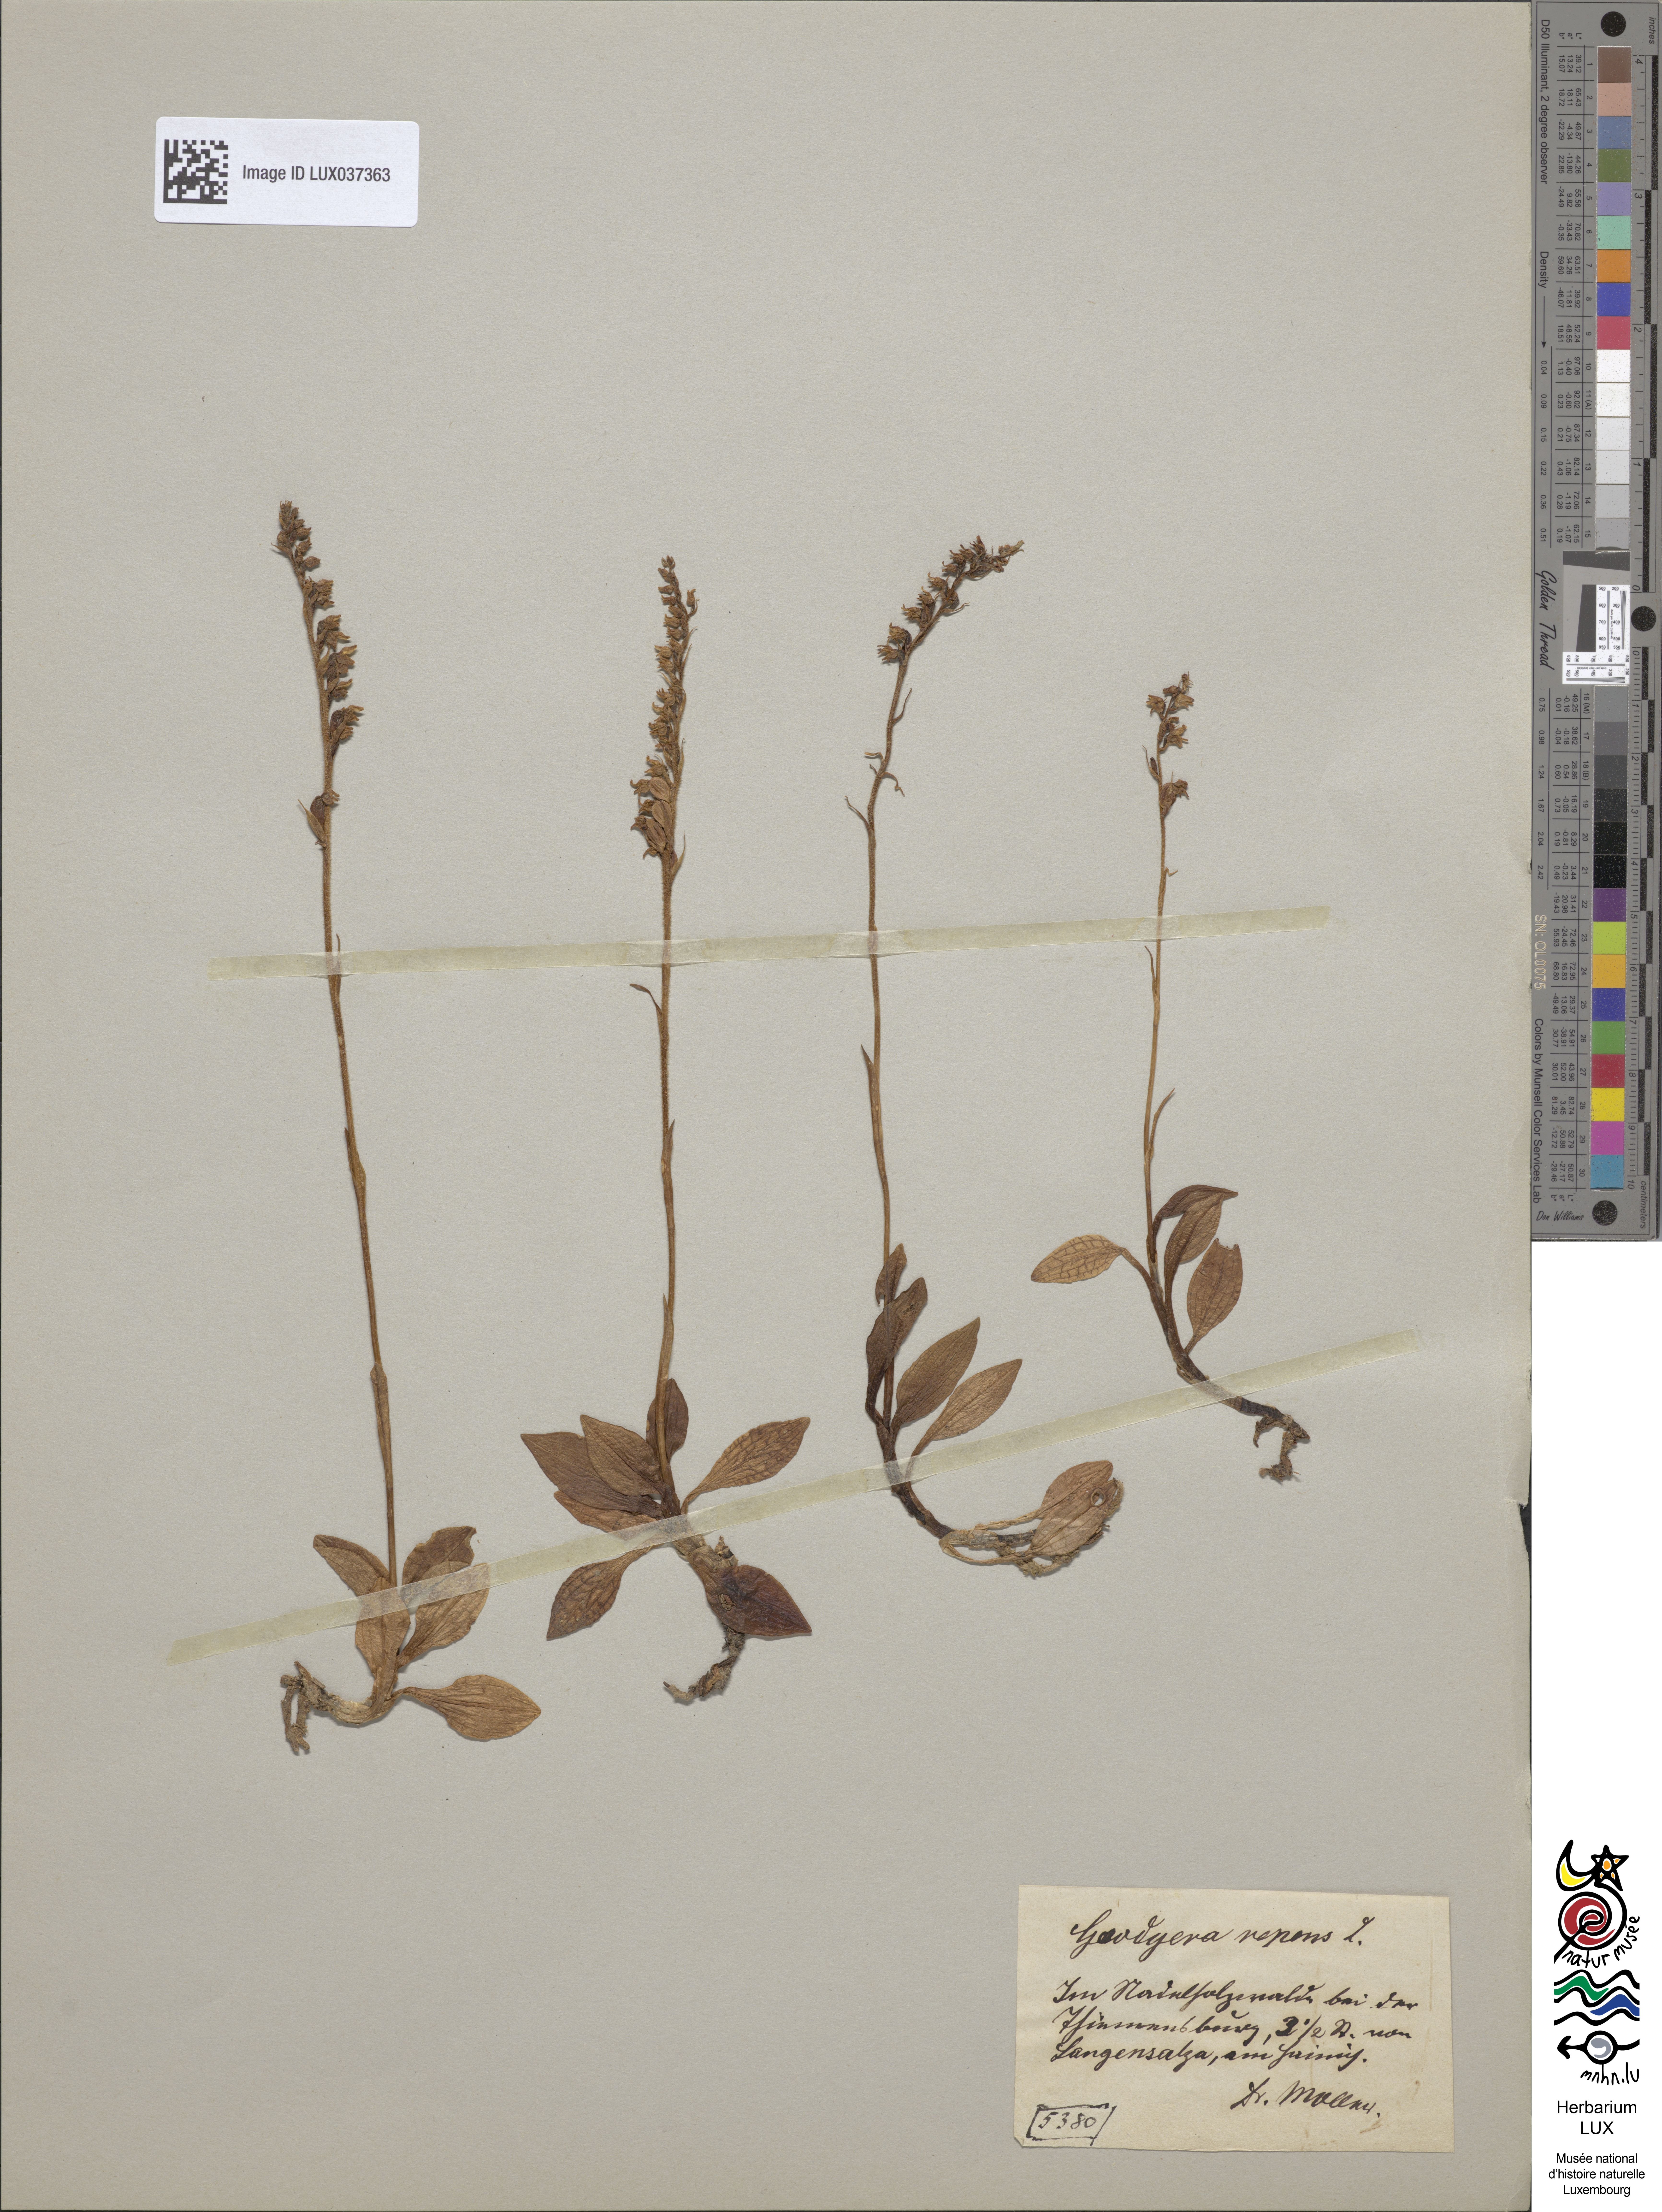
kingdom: Plantae
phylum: Tracheophyta
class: Liliopsida
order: Asparagales
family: Orchidaceae
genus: Goodyera
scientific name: Goodyera repens
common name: Creeping lady's-tresses
